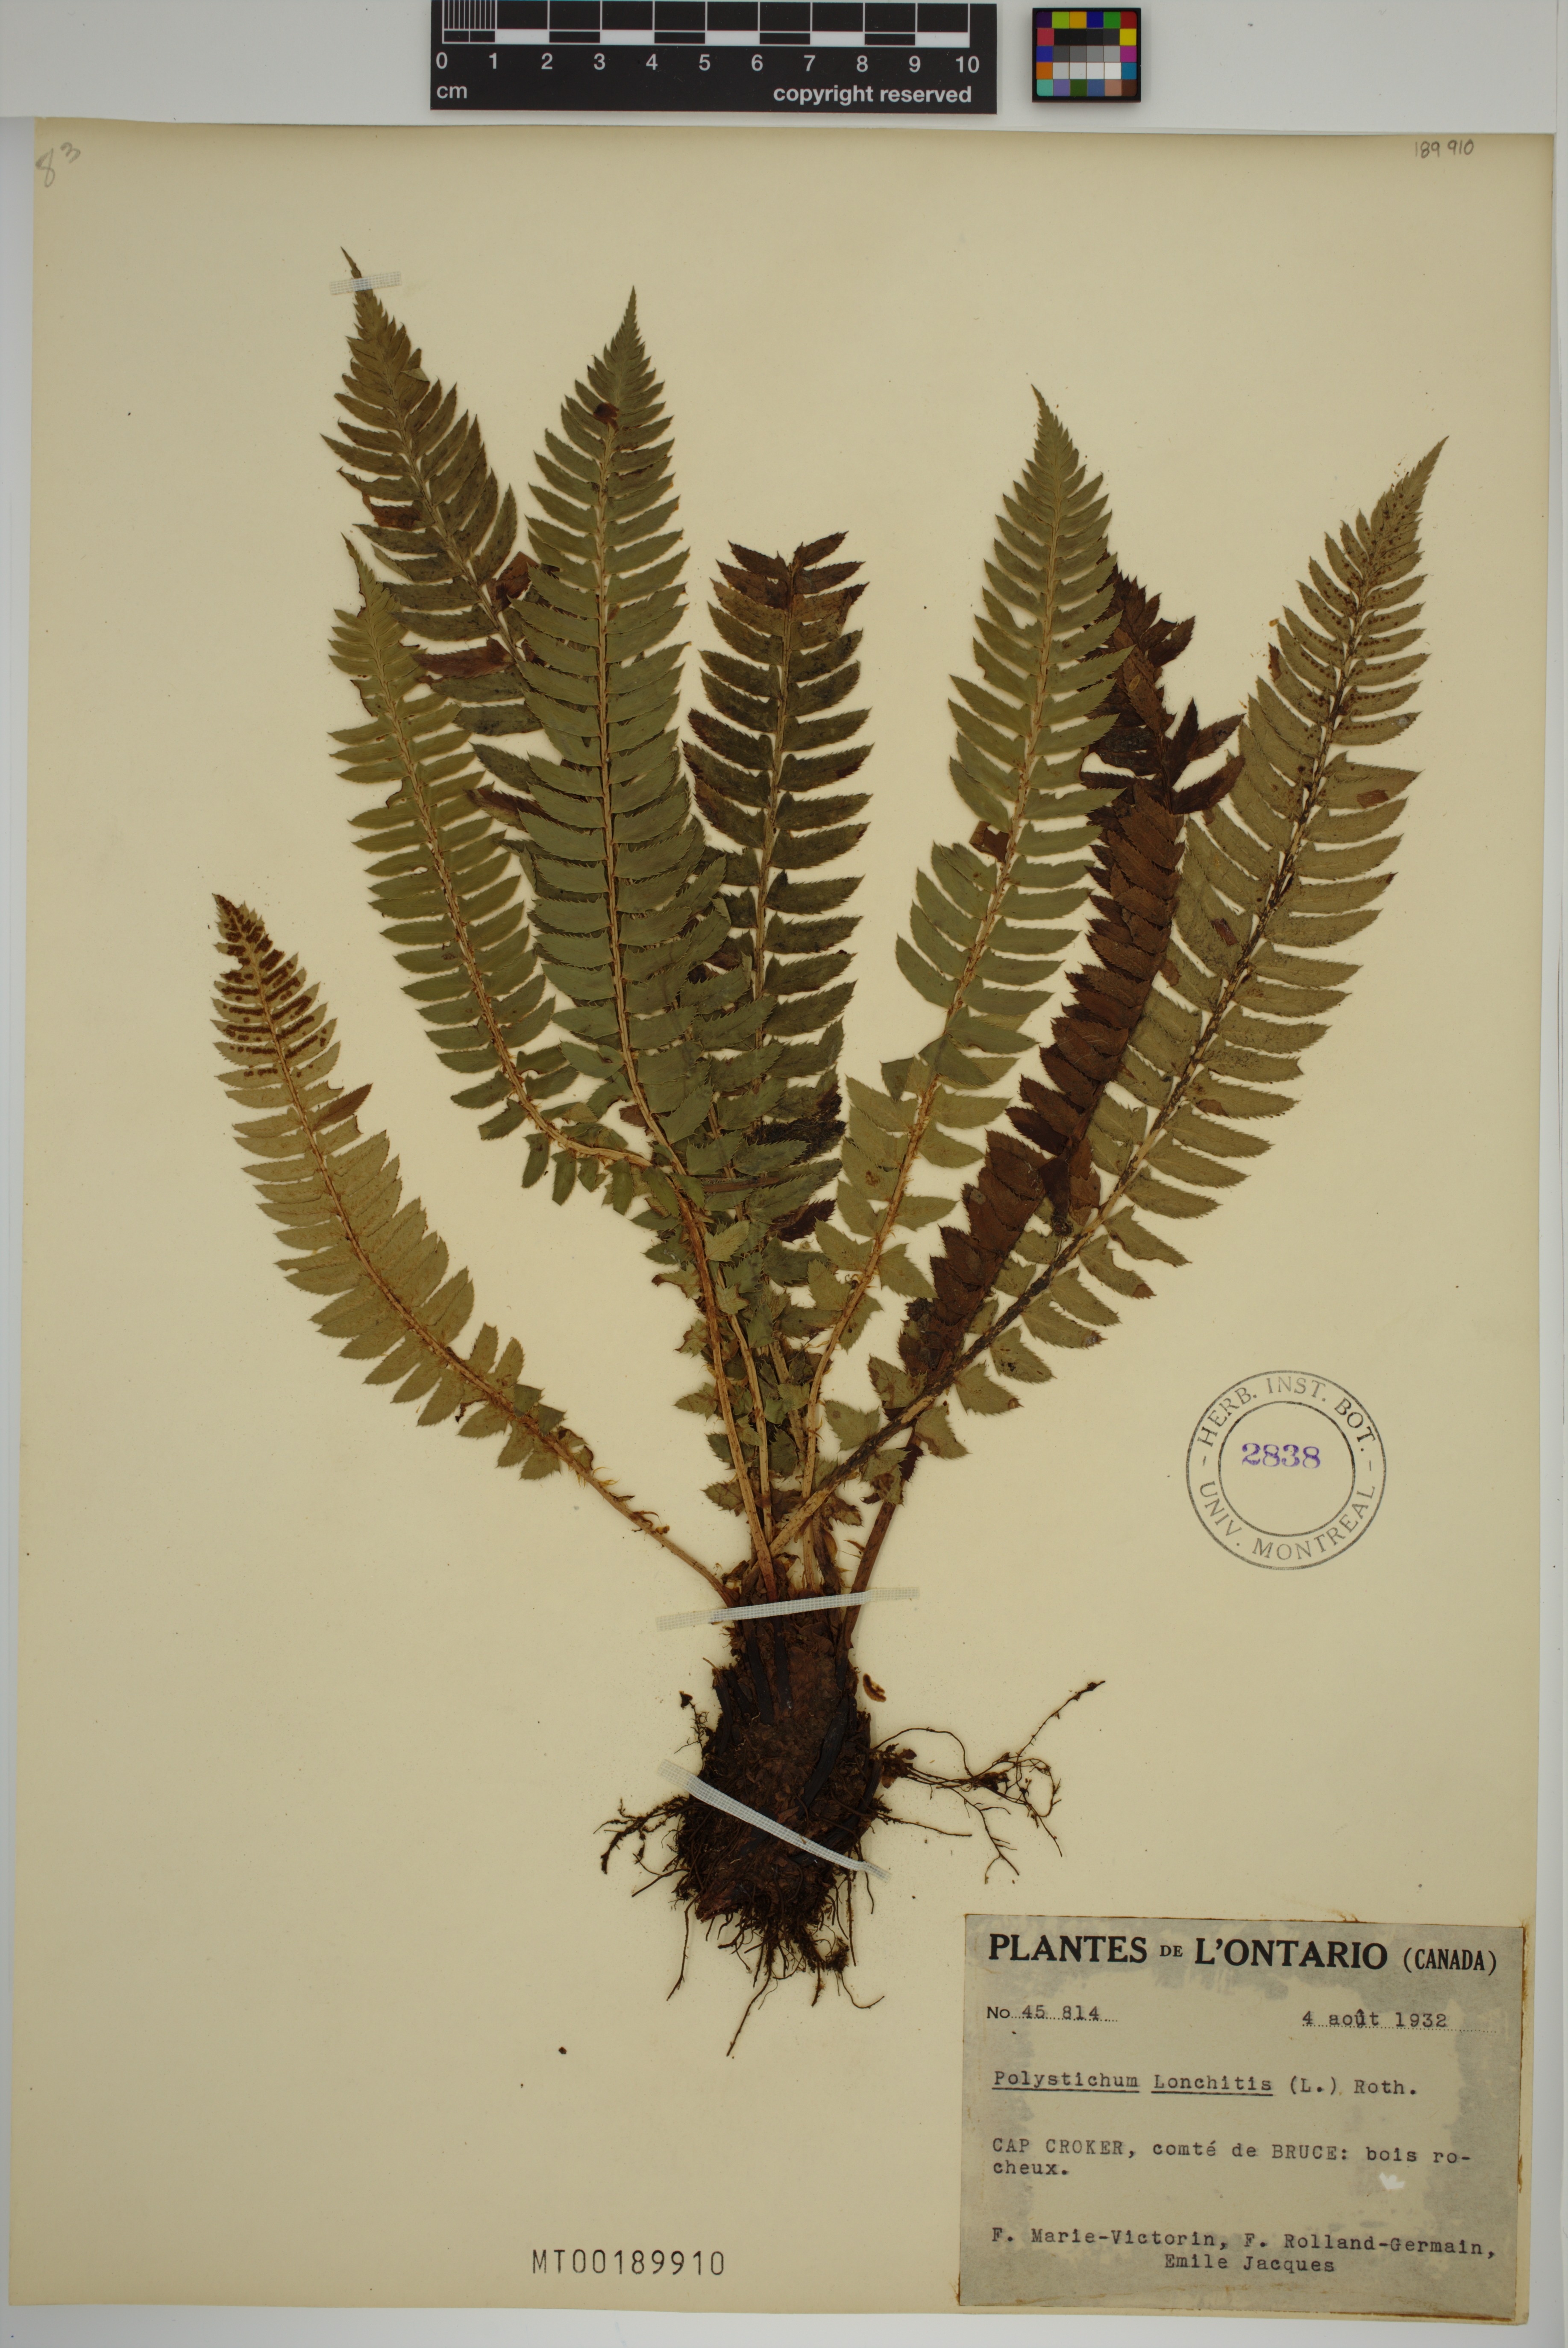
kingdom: Plantae
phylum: Tracheophyta
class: Polypodiopsida
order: Polypodiales
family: Dryopteridaceae
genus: Polystichum
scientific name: Polystichum lonchitis
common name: Holly fern
